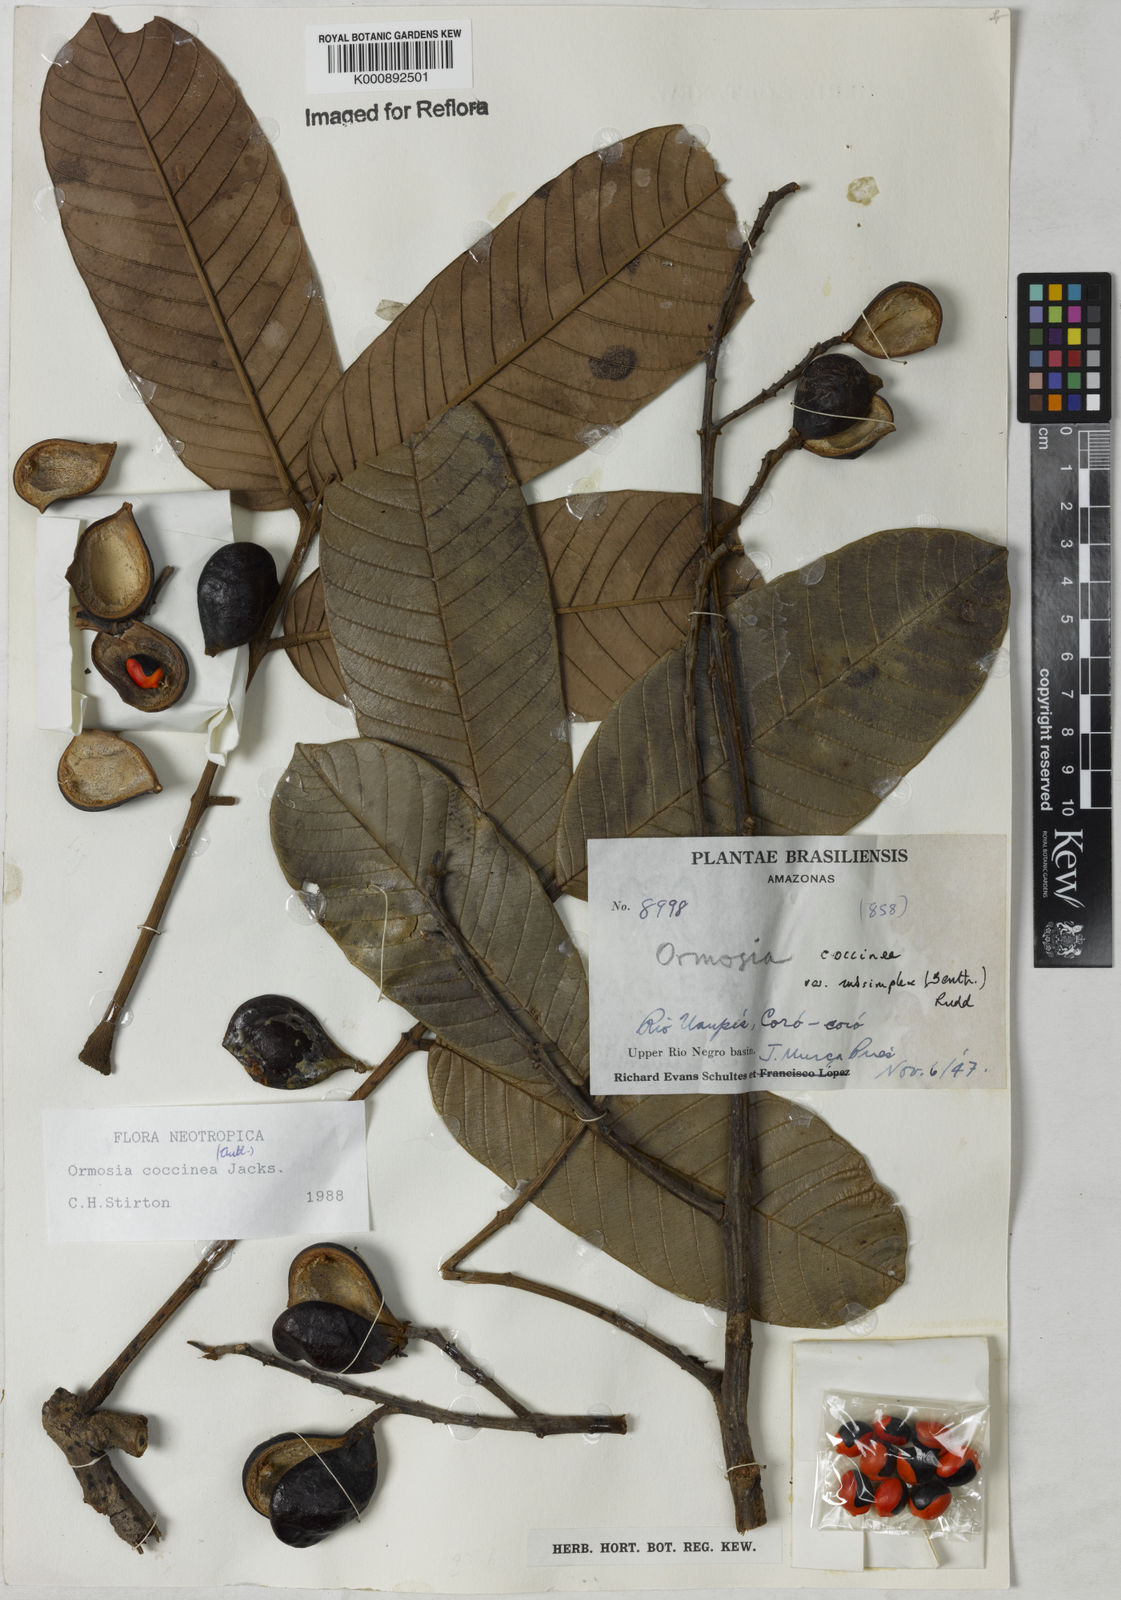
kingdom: Plantae
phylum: Tracheophyta
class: Magnoliopsida
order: Fabales
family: Fabaceae
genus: Ormosia
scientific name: Ormosia coccinea
